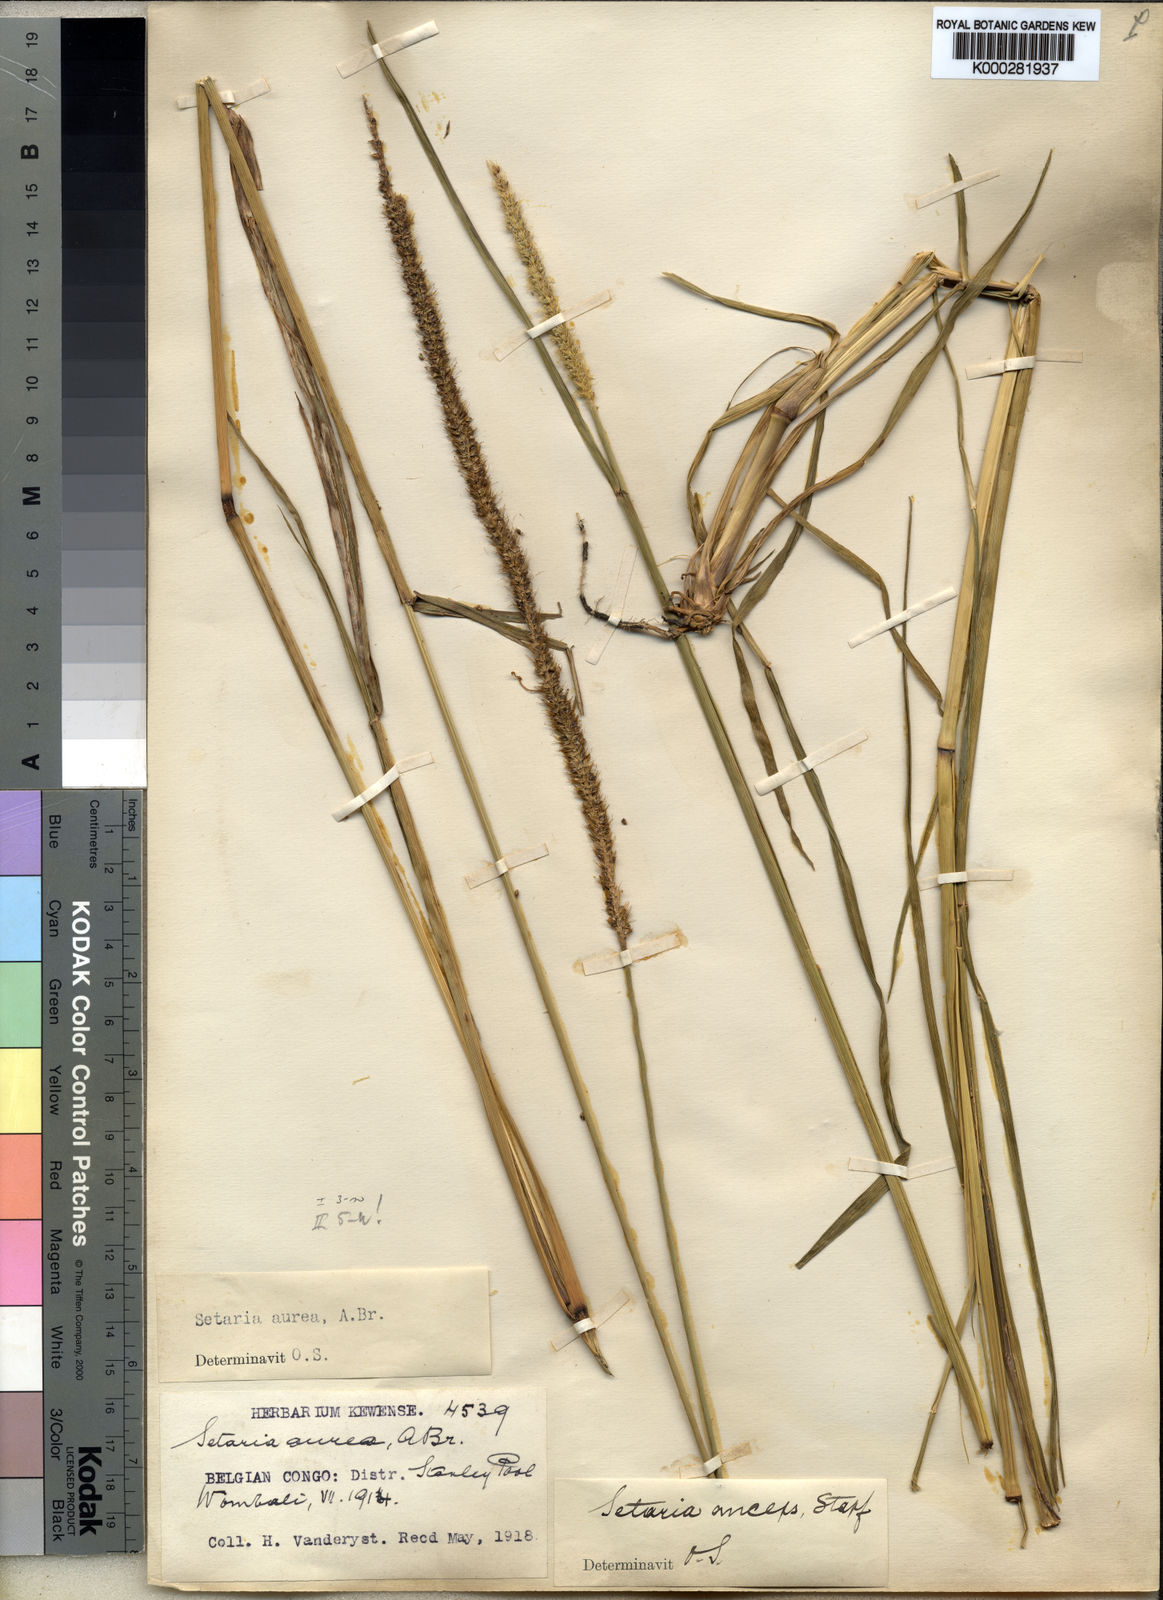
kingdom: Plantae
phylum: Tracheophyta
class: Liliopsida
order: Poales
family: Poaceae
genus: Setaria
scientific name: Setaria sphacelata
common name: African bristlegrass
